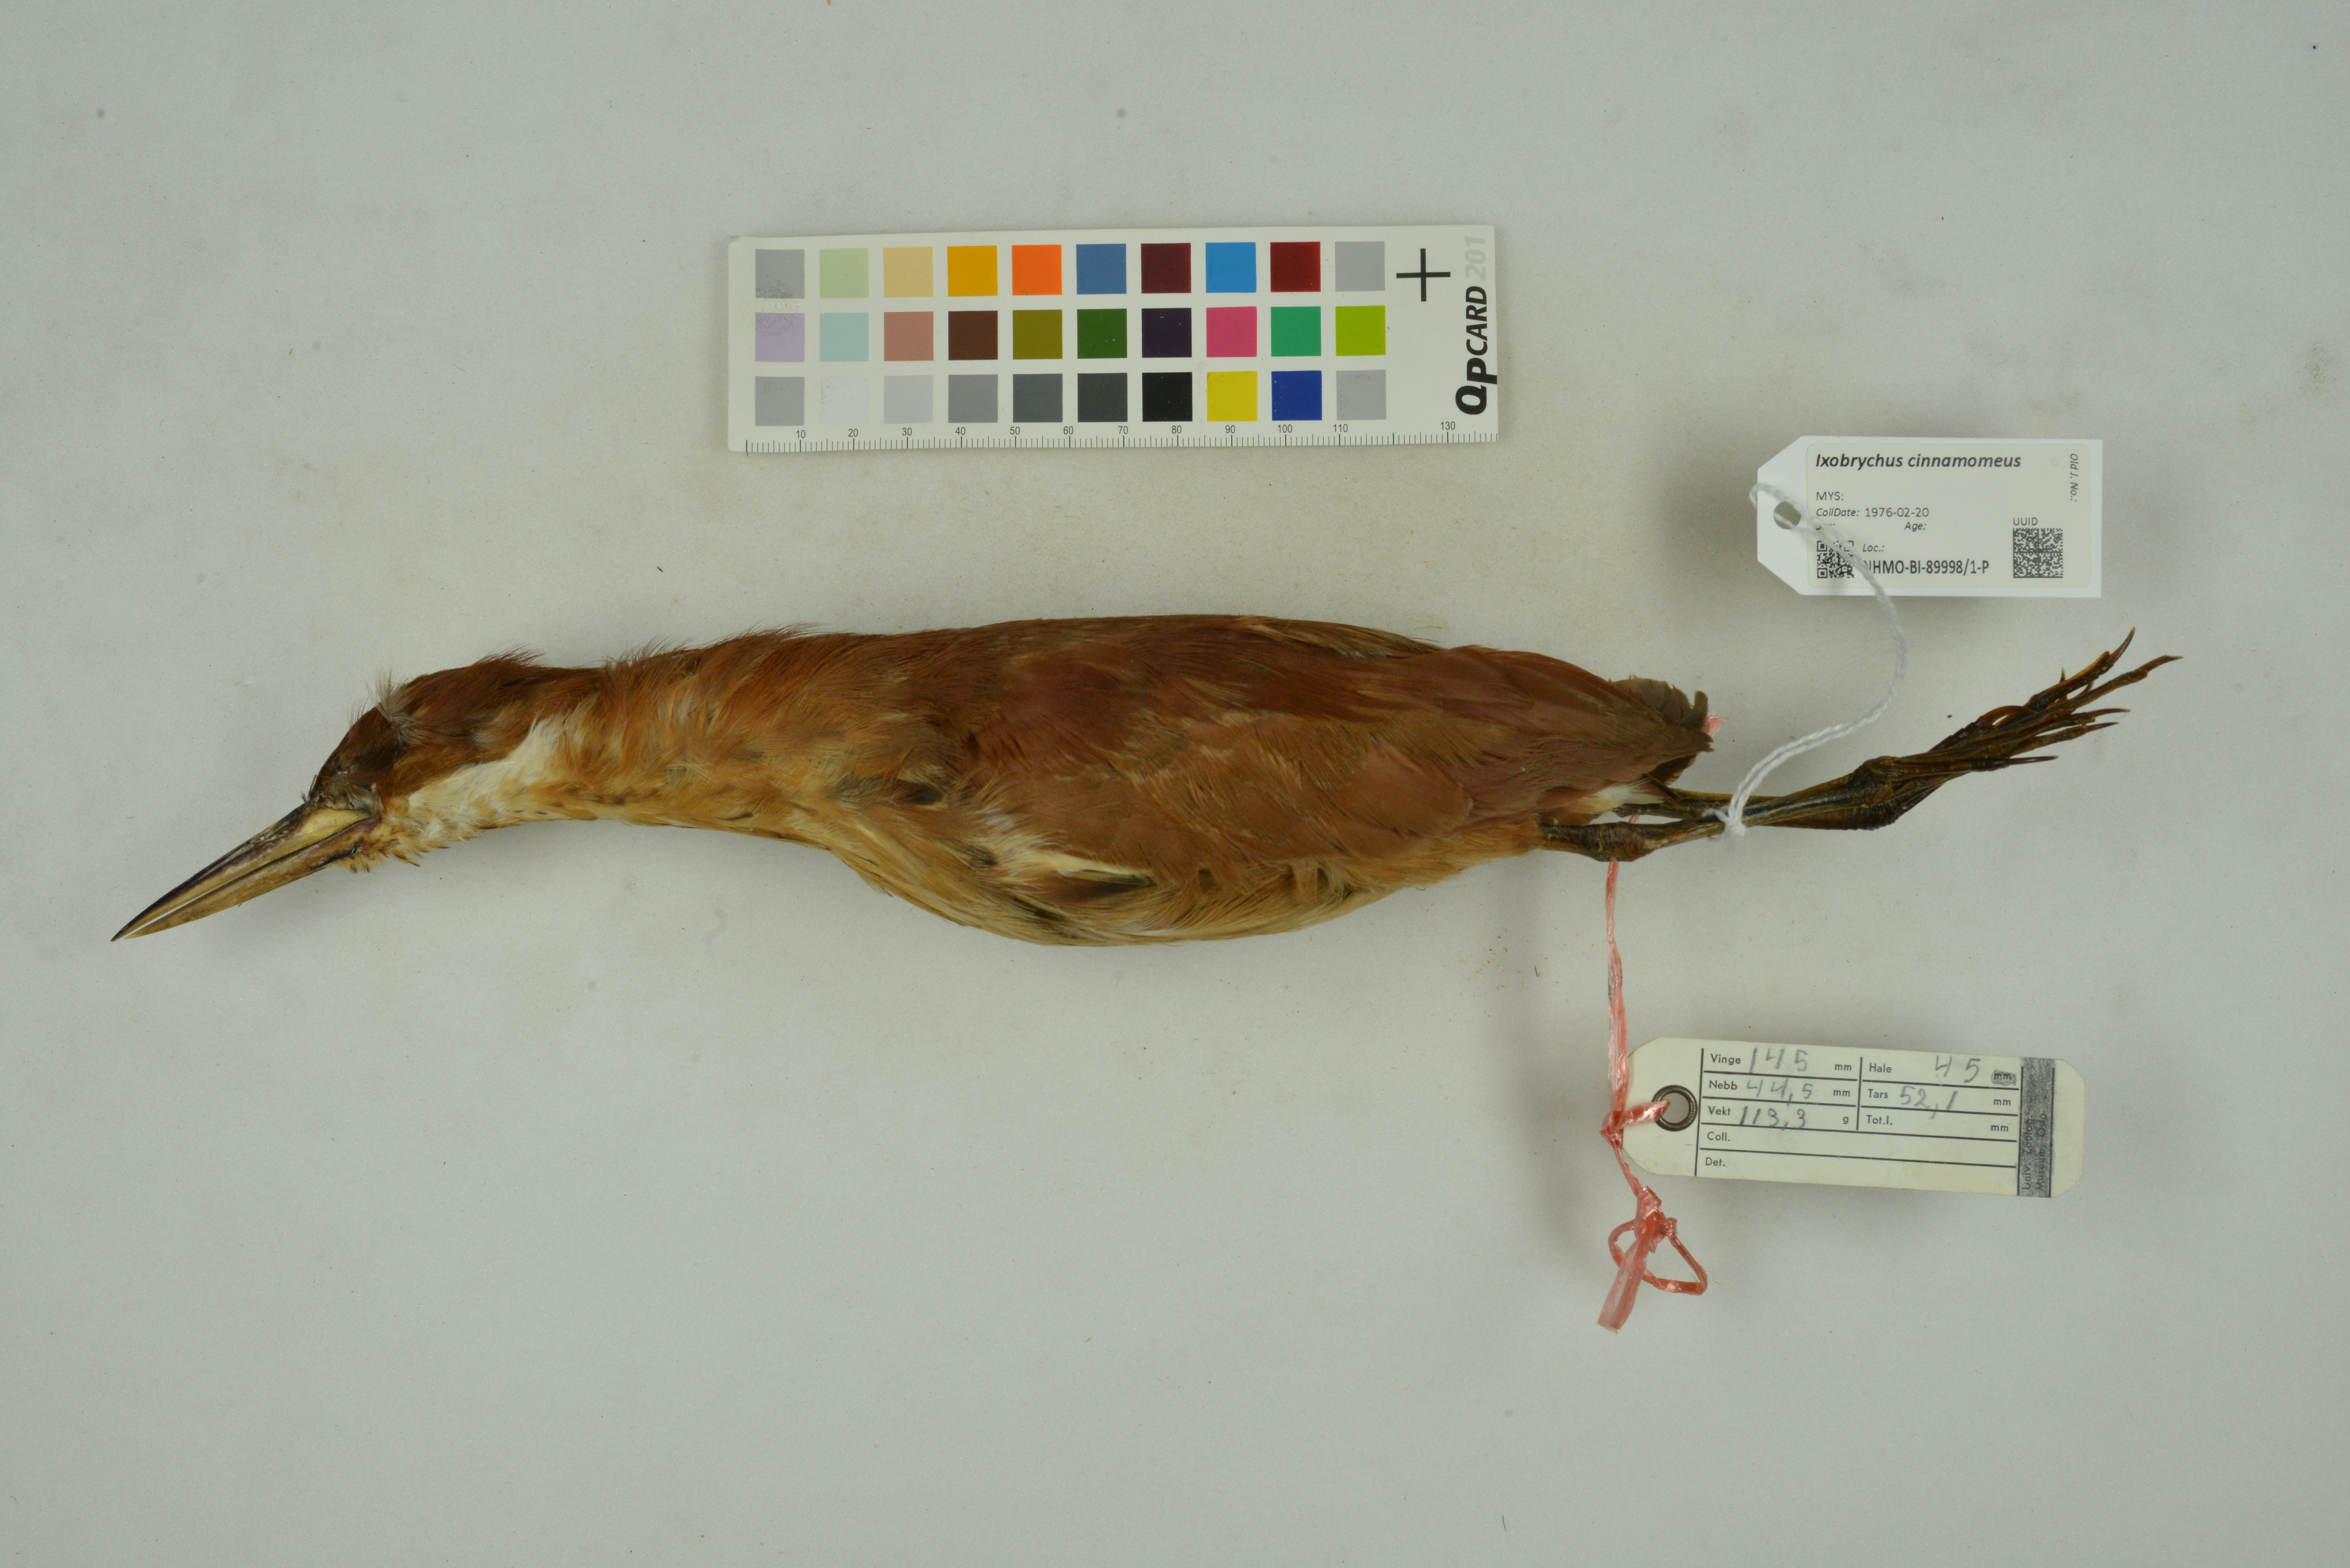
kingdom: Animalia
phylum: Chordata
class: Aves
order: Pelecaniformes
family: Ardeidae
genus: Ixobrychus
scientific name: Ixobrychus cinnamomeus
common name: Cinnamon bittern
